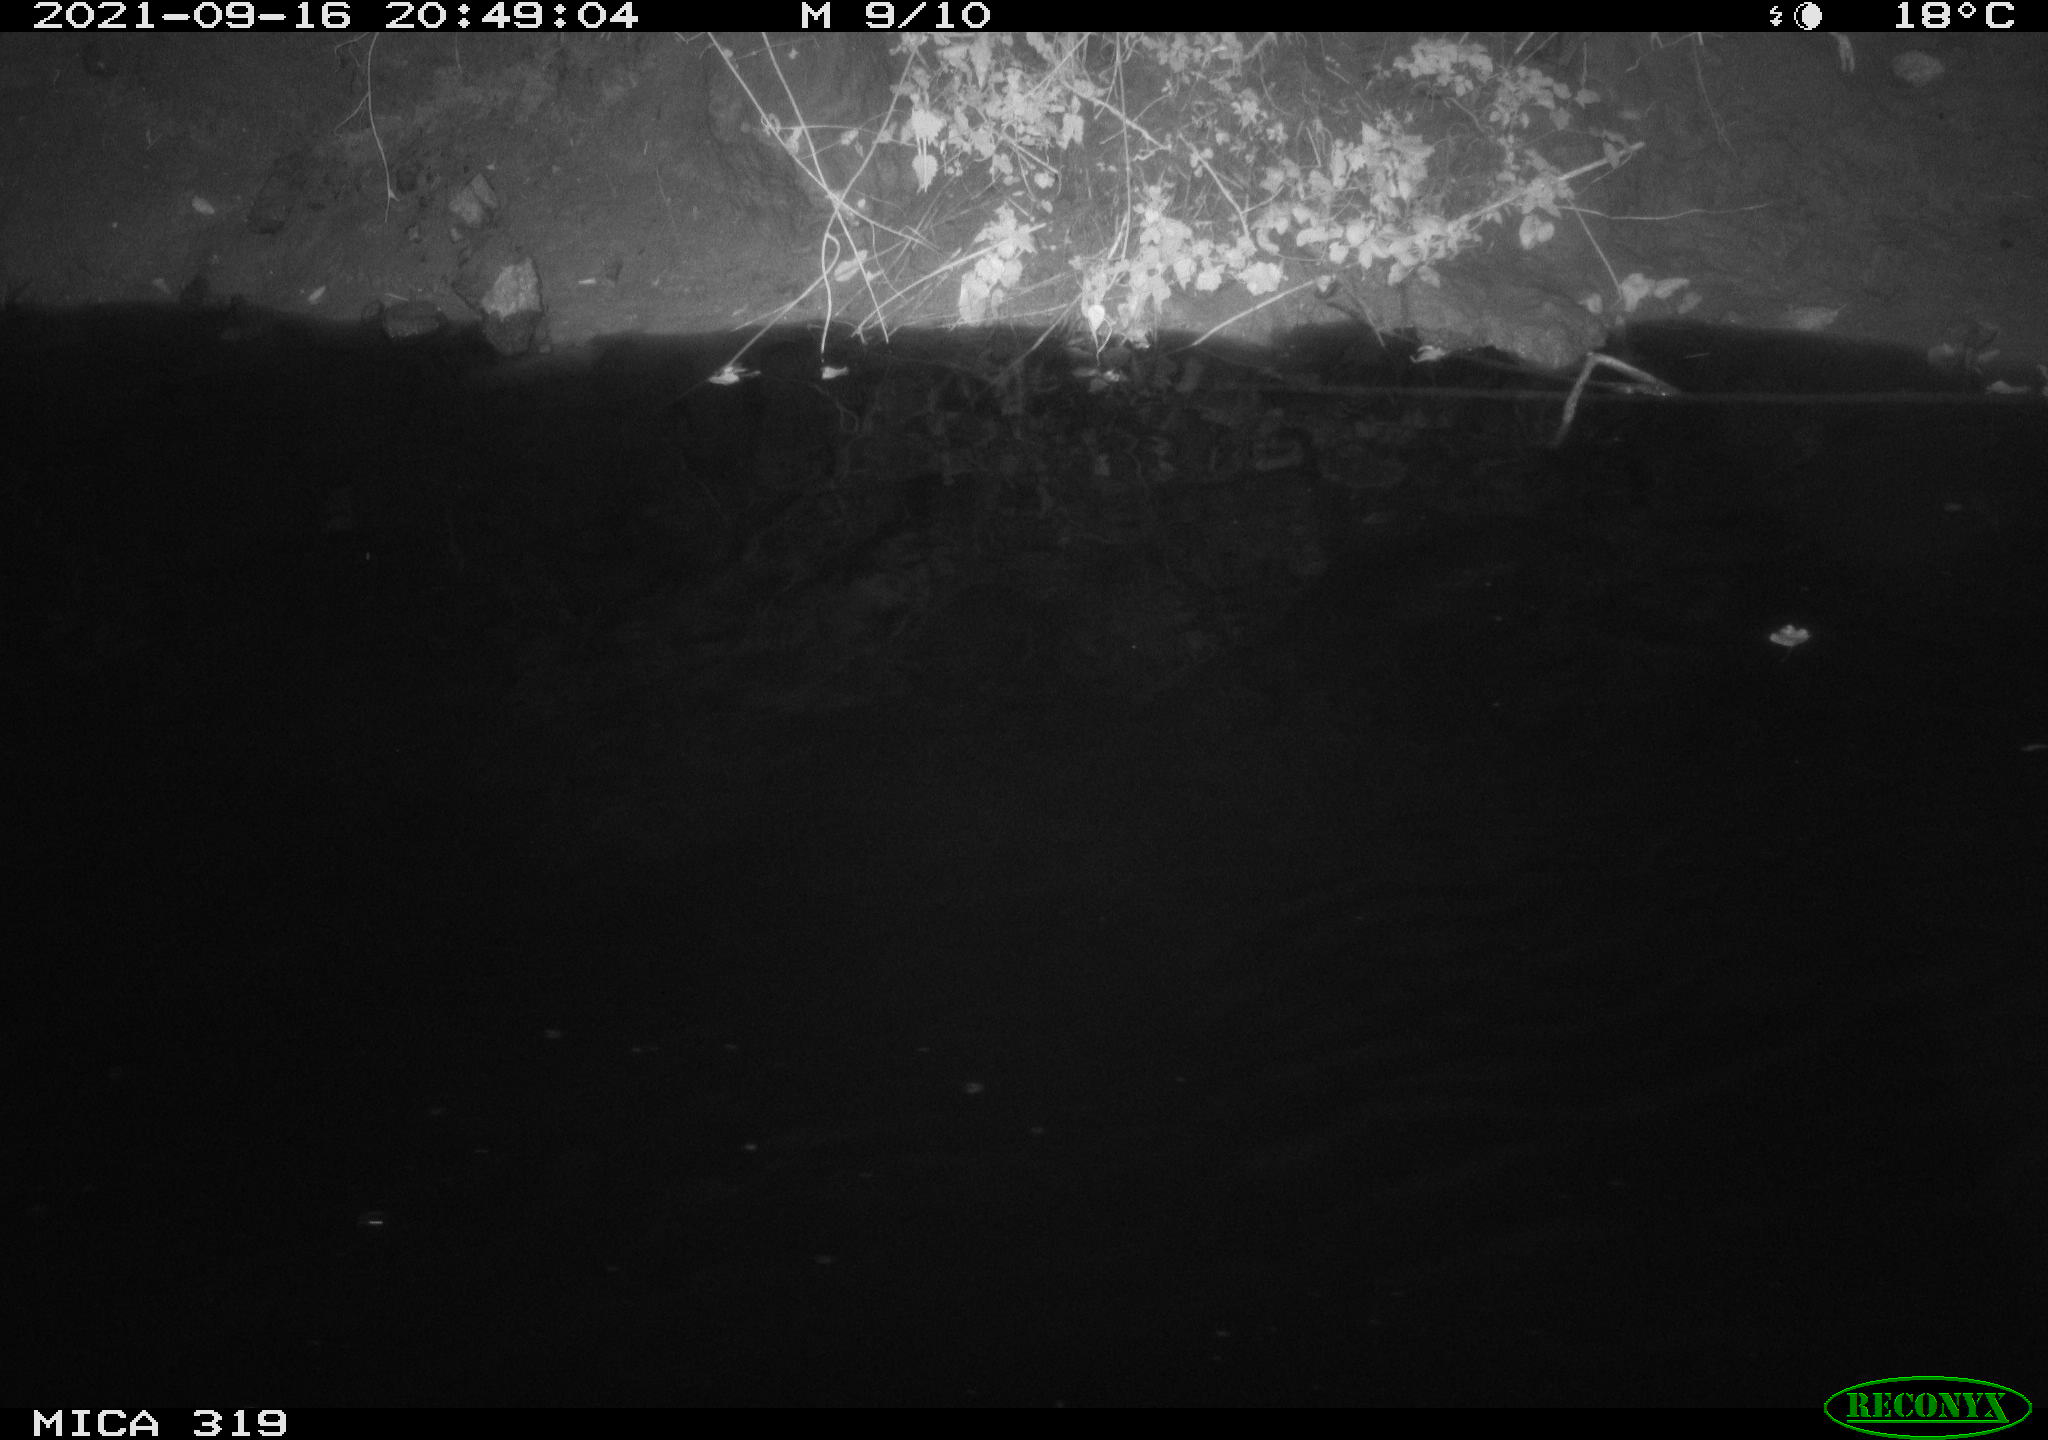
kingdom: Animalia
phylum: Chordata
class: Aves
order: Anseriformes
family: Anatidae
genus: Anas
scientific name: Anas platyrhynchos
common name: Mallard
